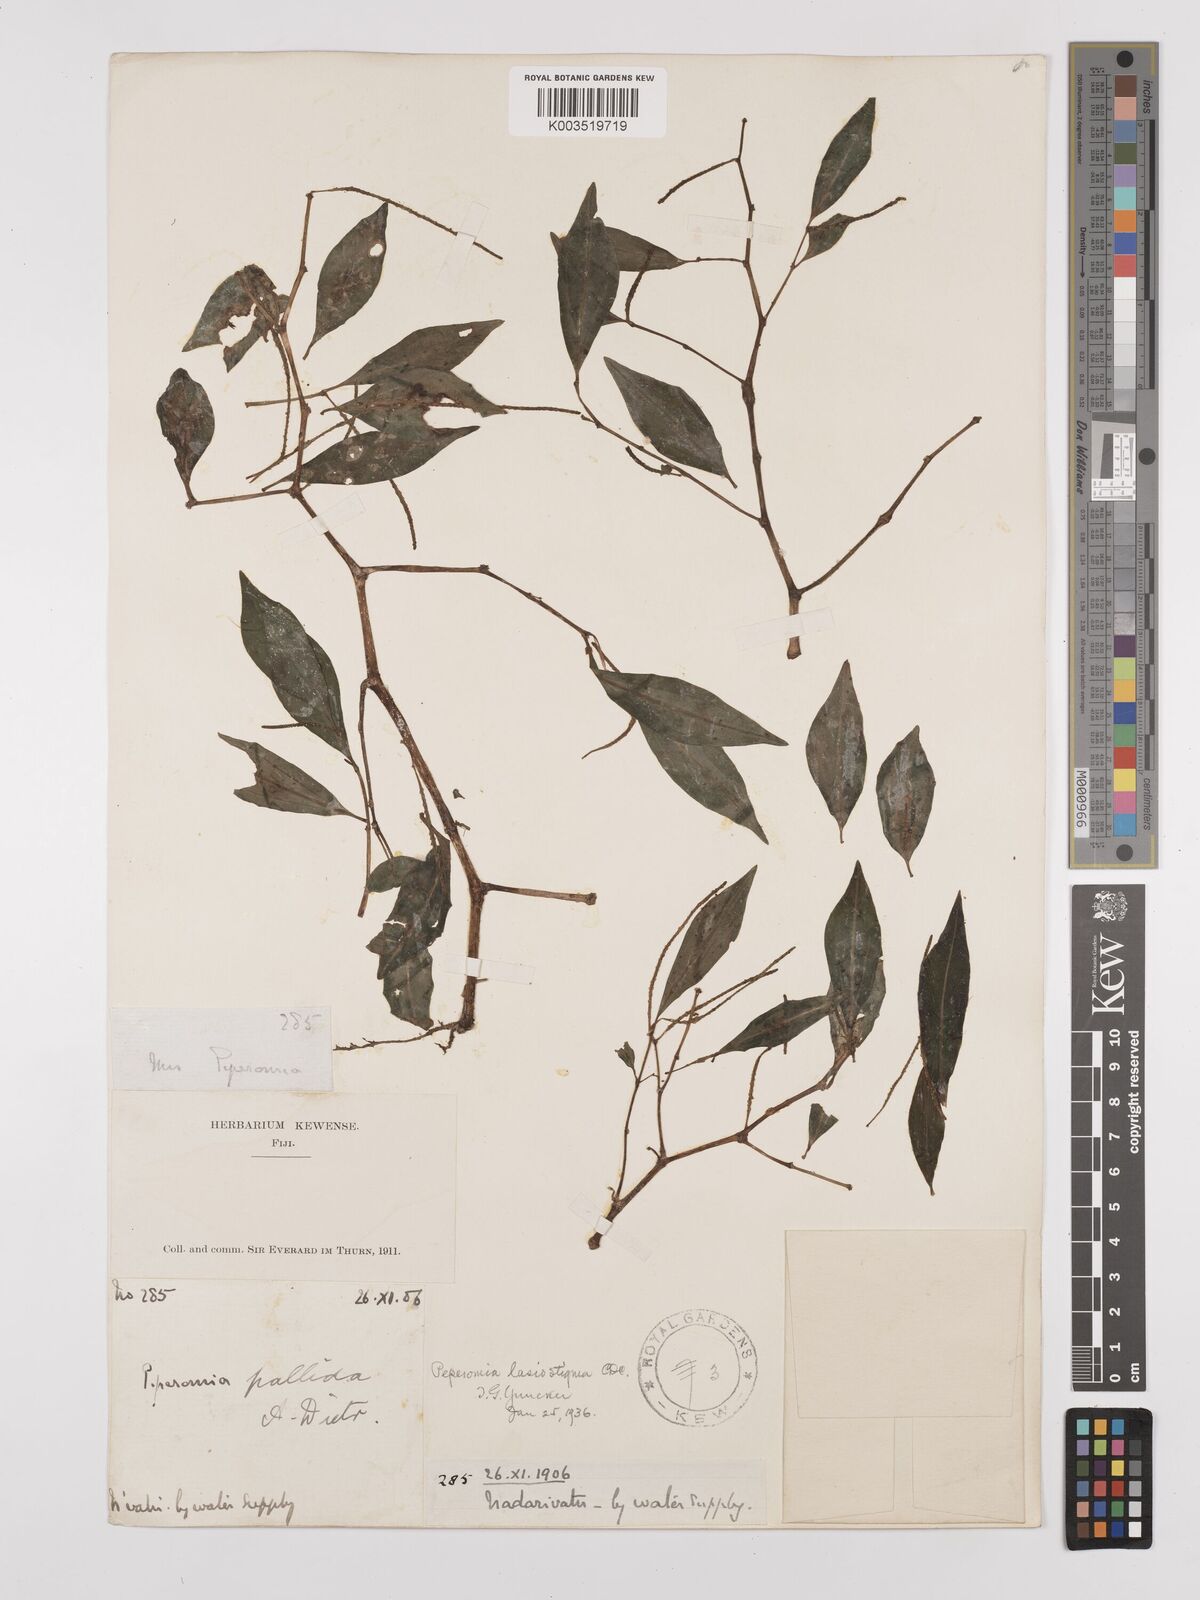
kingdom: Plantae
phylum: Tracheophyta
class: Magnoliopsida
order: Piperales
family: Piperaceae
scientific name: Piperaceae
